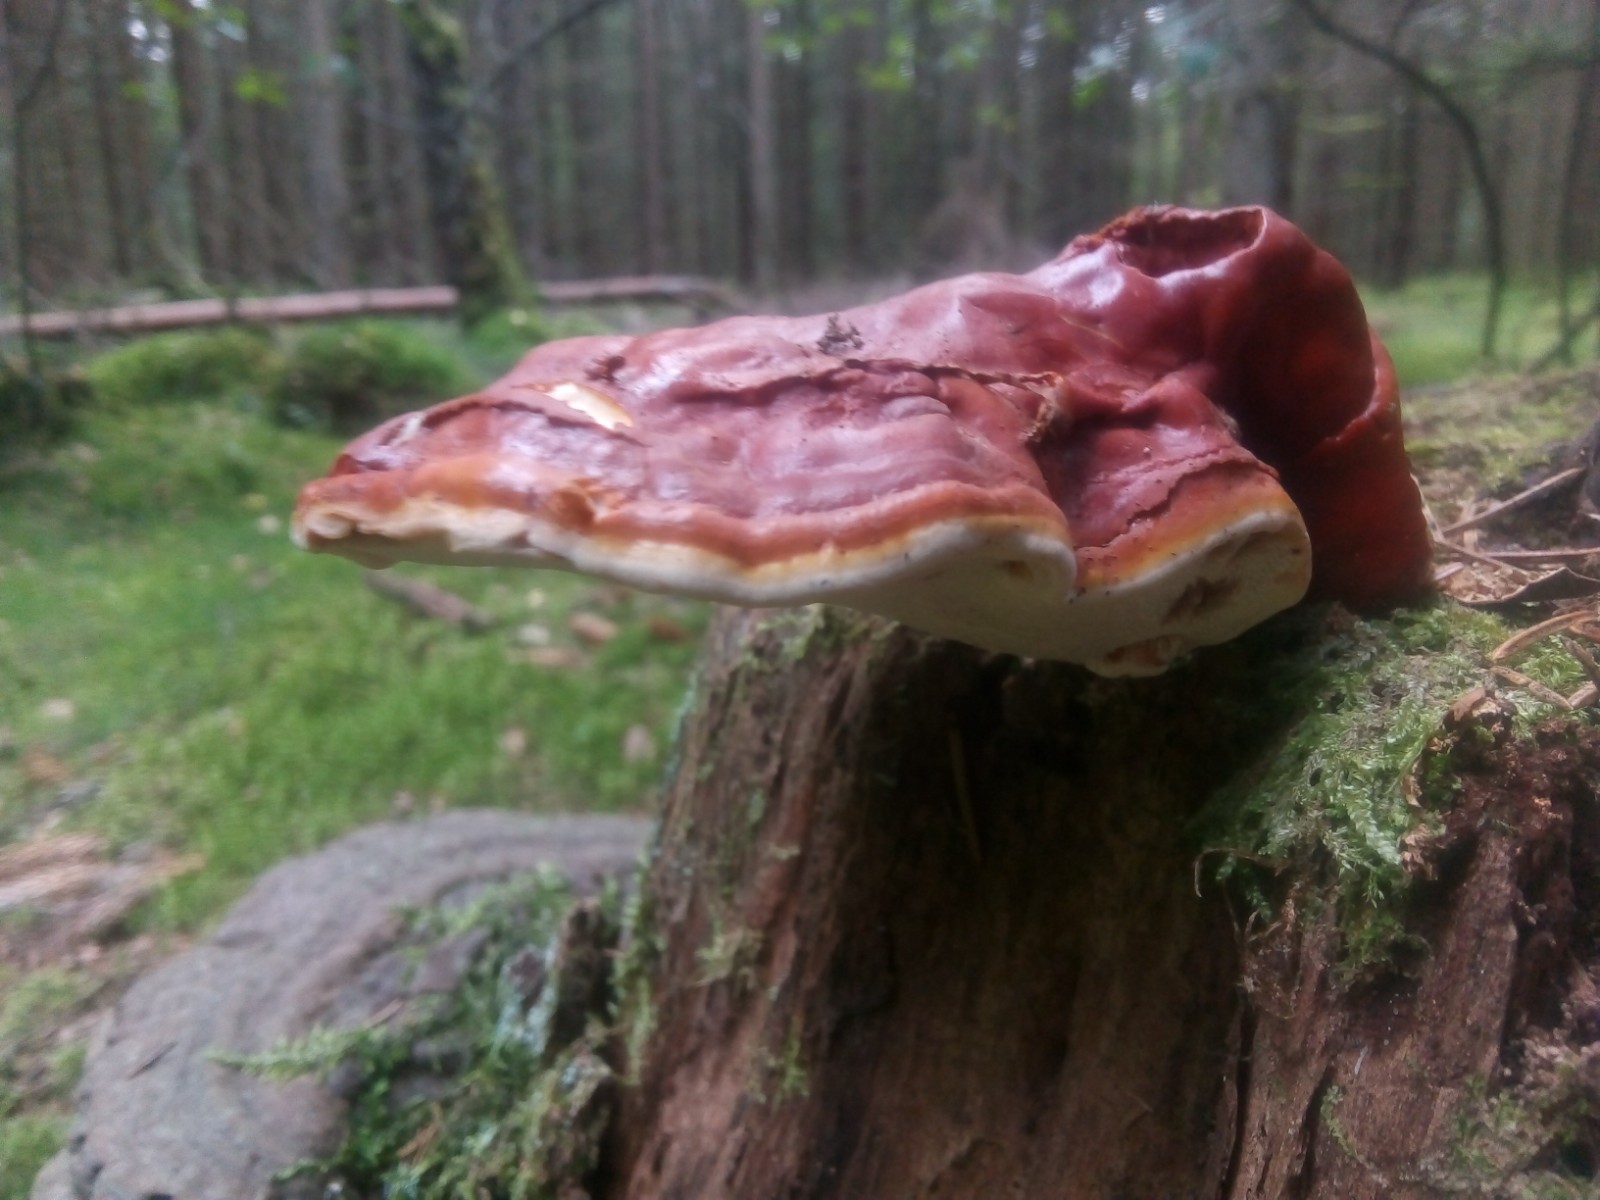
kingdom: Fungi
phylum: Basidiomycota
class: Agaricomycetes
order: Polyporales
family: Polyporaceae
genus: Ganoderma
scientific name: Ganoderma lucidum
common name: skinnende lakporesvamp
